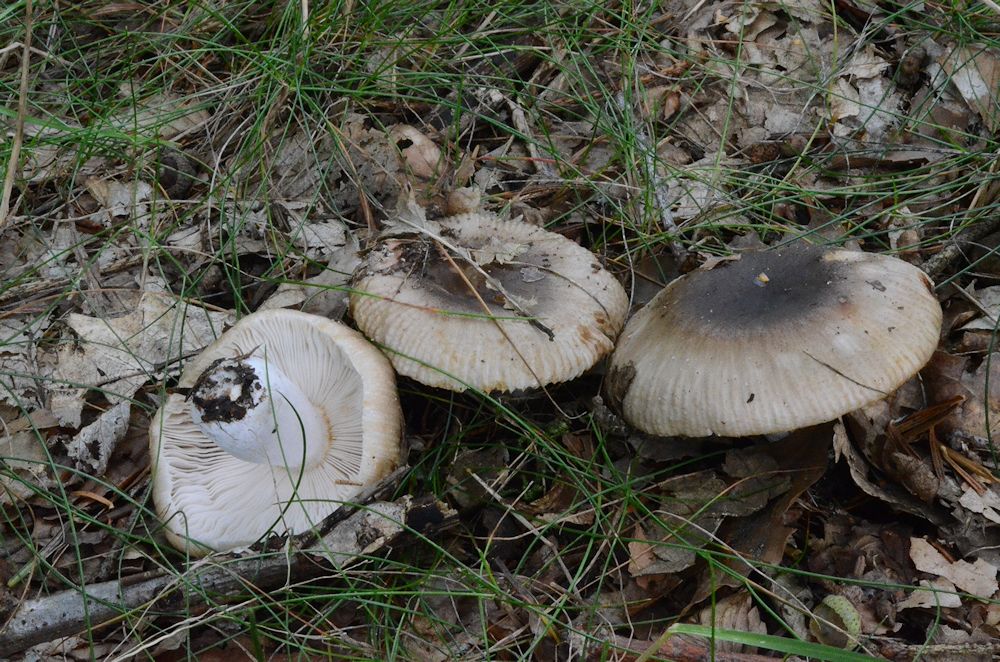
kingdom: Fungi
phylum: Basidiomycota
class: Agaricomycetes
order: Russulales
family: Russulaceae
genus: Russula
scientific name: Russula amoenolens
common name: skarp kam-skørhat
